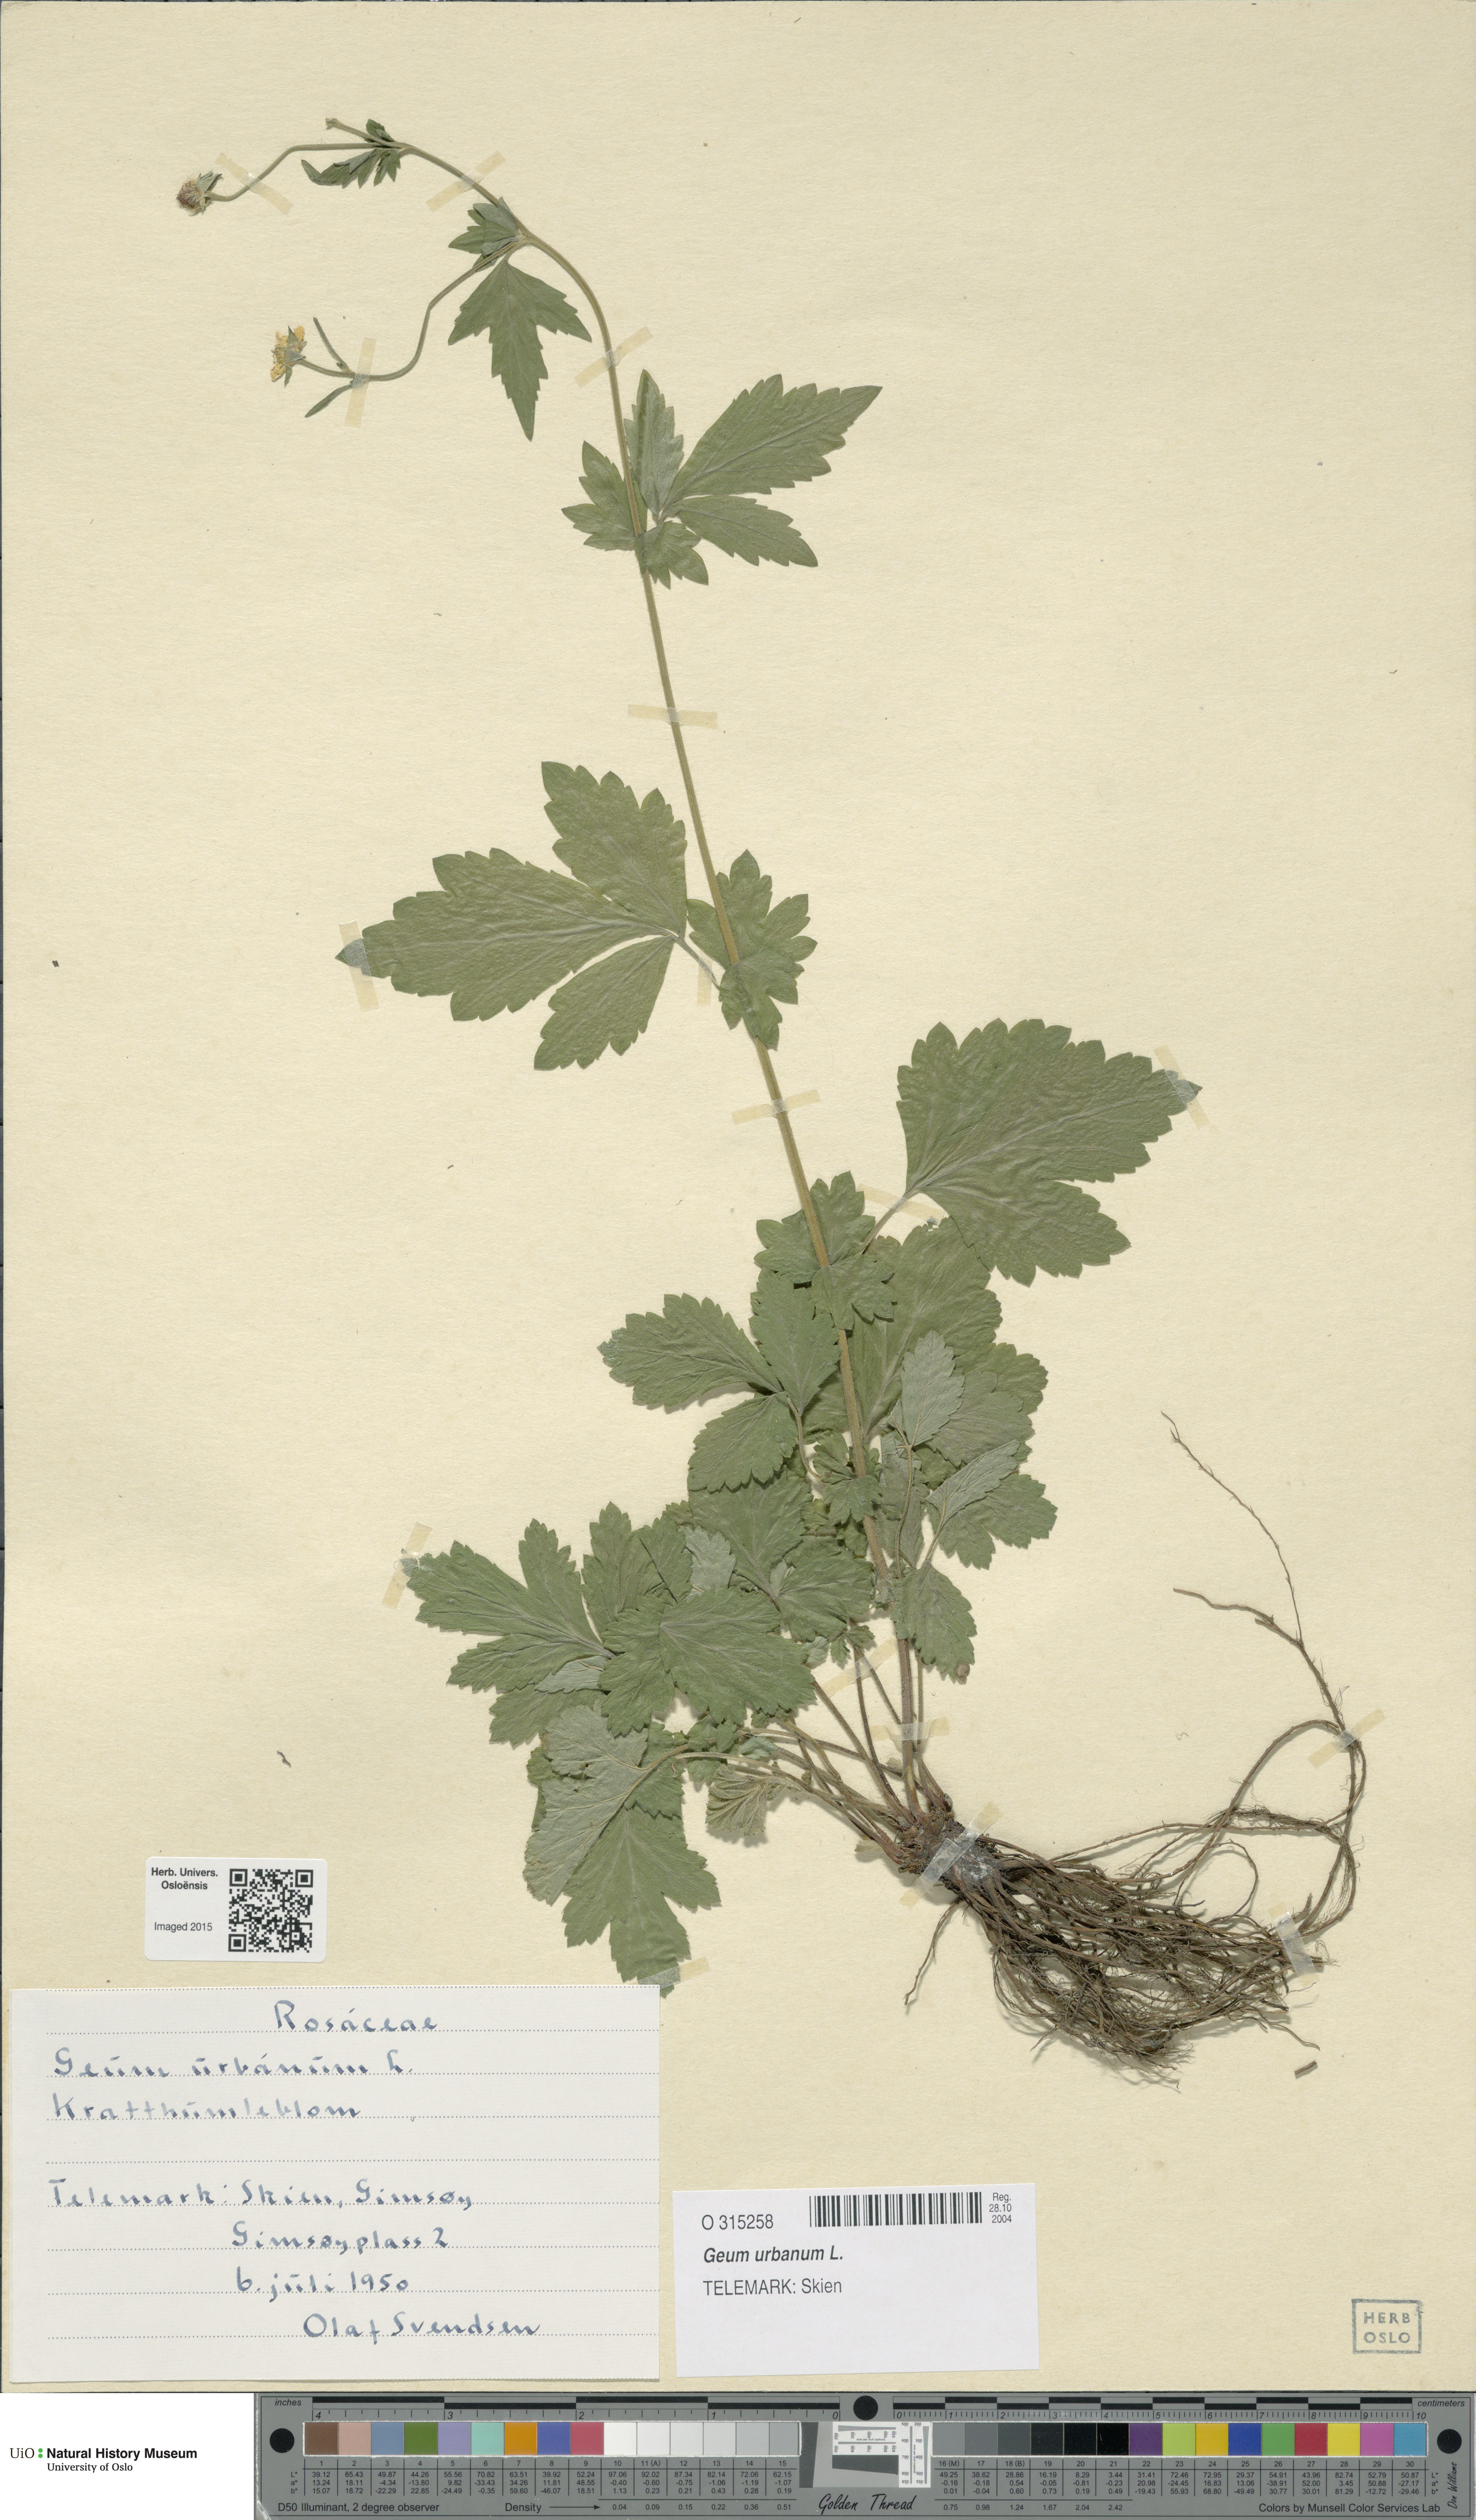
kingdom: Plantae
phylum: Tracheophyta
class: Magnoliopsida
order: Rosales
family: Rosaceae
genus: Geum
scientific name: Geum urbanum
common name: Wood avens
